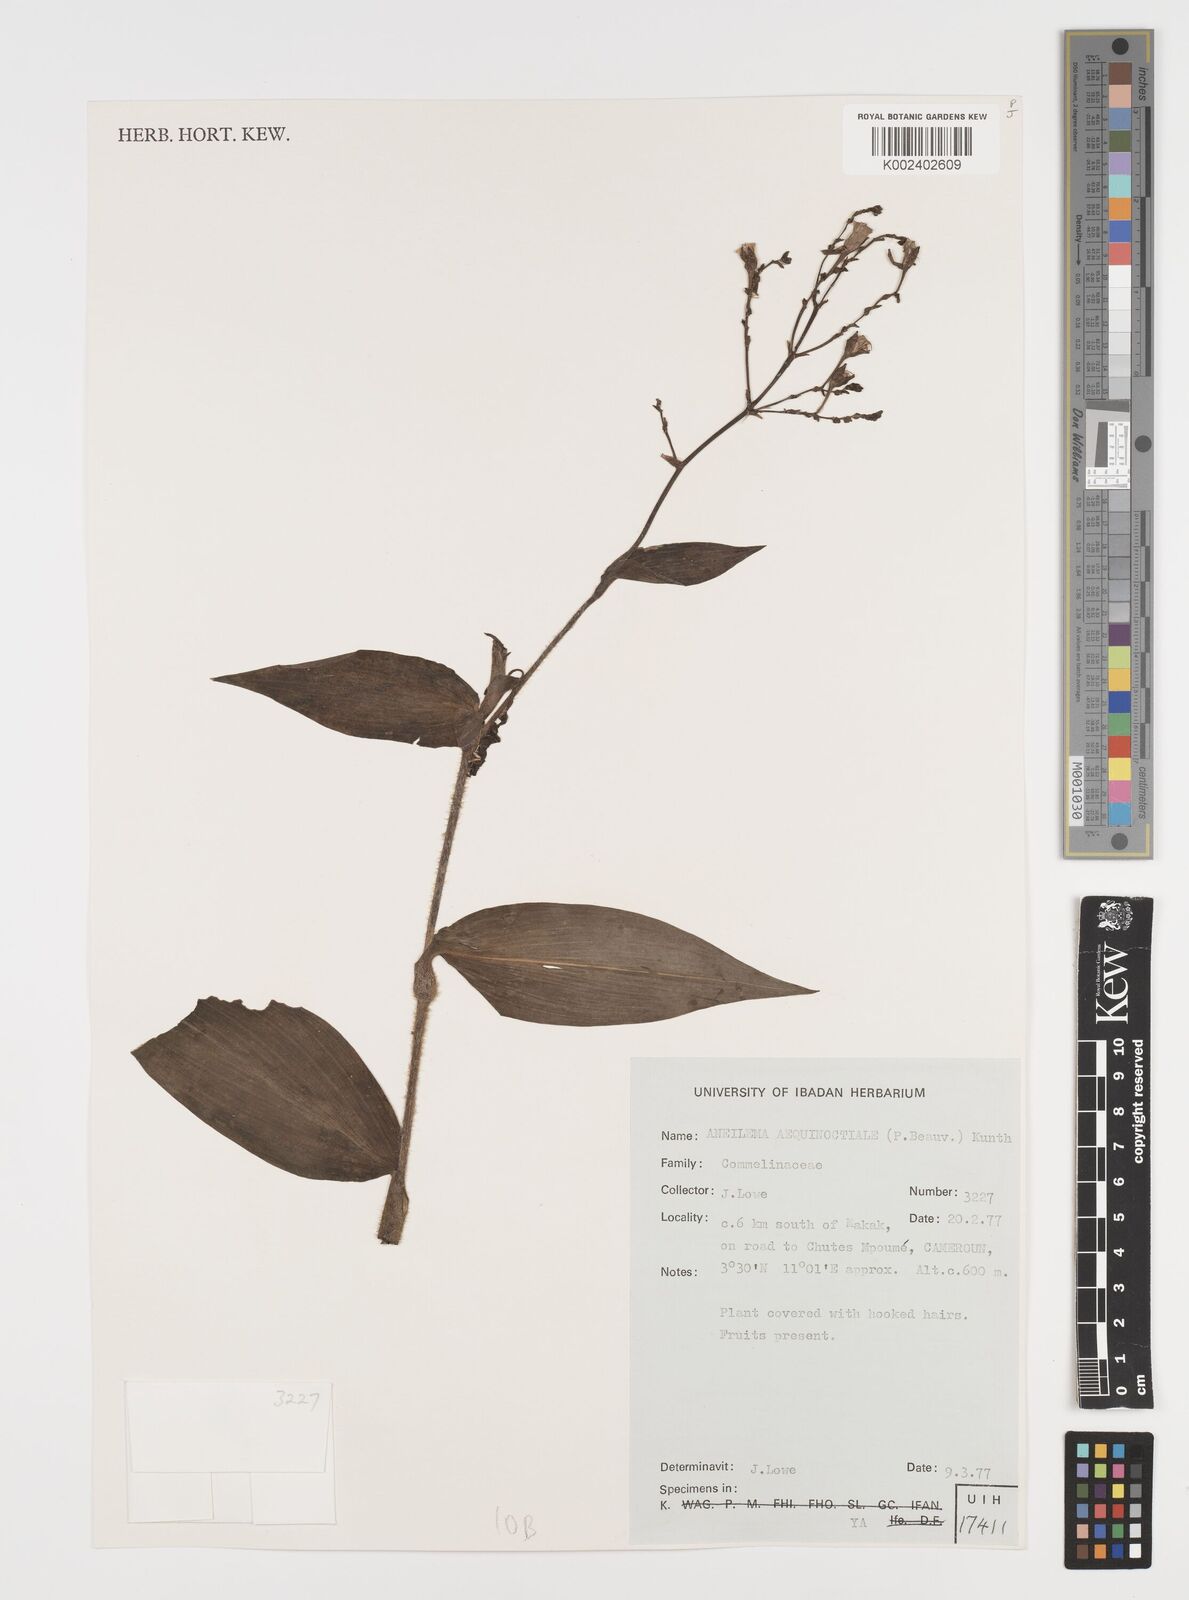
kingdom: Plantae
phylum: Tracheophyta
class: Liliopsida
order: Commelinales
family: Commelinaceae
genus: Aneilema
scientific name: Aneilema aequinoctiale
